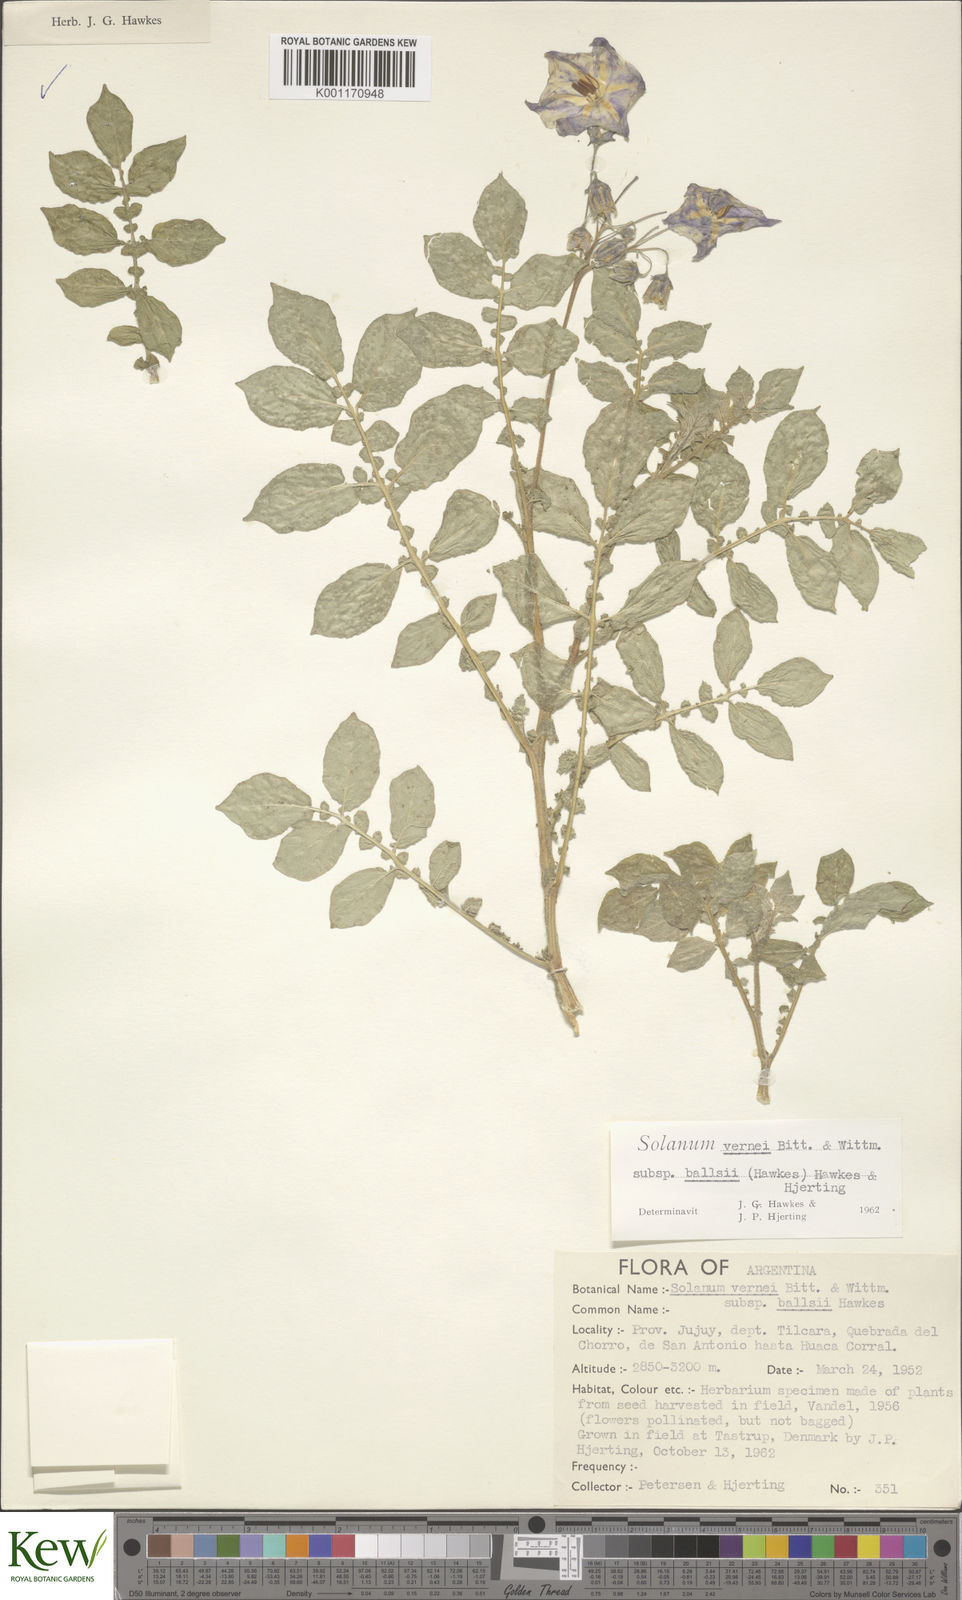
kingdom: Plantae
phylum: Tracheophyta
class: Magnoliopsida
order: Solanales
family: Solanaceae
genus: Solanum
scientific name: Solanum vernei
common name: Purple potato
